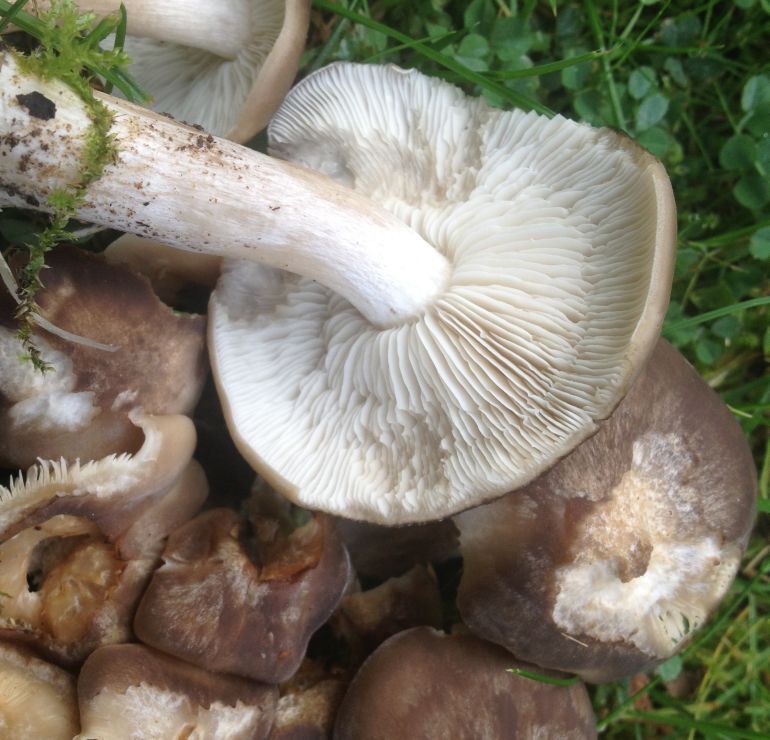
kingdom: Fungi
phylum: Basidiomycota
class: Agaricomycetes
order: Agaricales
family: Lyophyllaceae
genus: Lyophyllum
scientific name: Lyophyllum decastes
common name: røggrå gråblad
